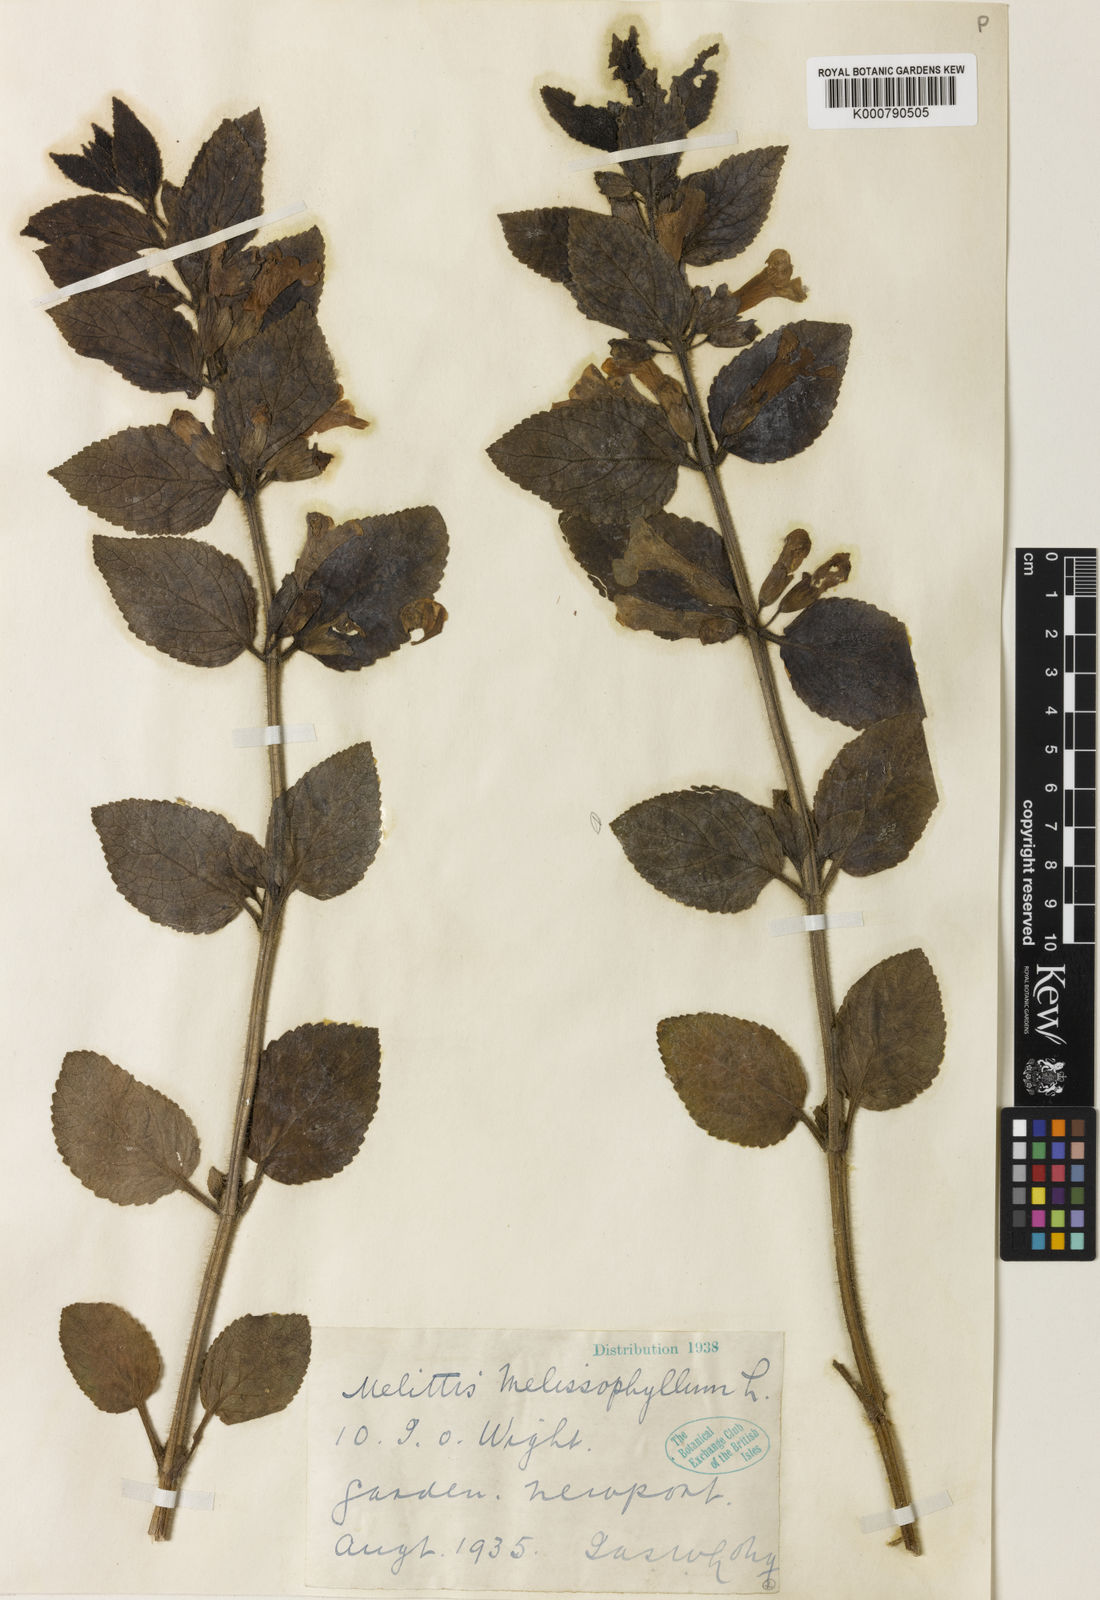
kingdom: Plantae
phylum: Tracheophyta
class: Magnoliopsida
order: Lamiales
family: Lamiaceae
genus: Melittis
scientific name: Melittis melissophyllum
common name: Bastard balm
